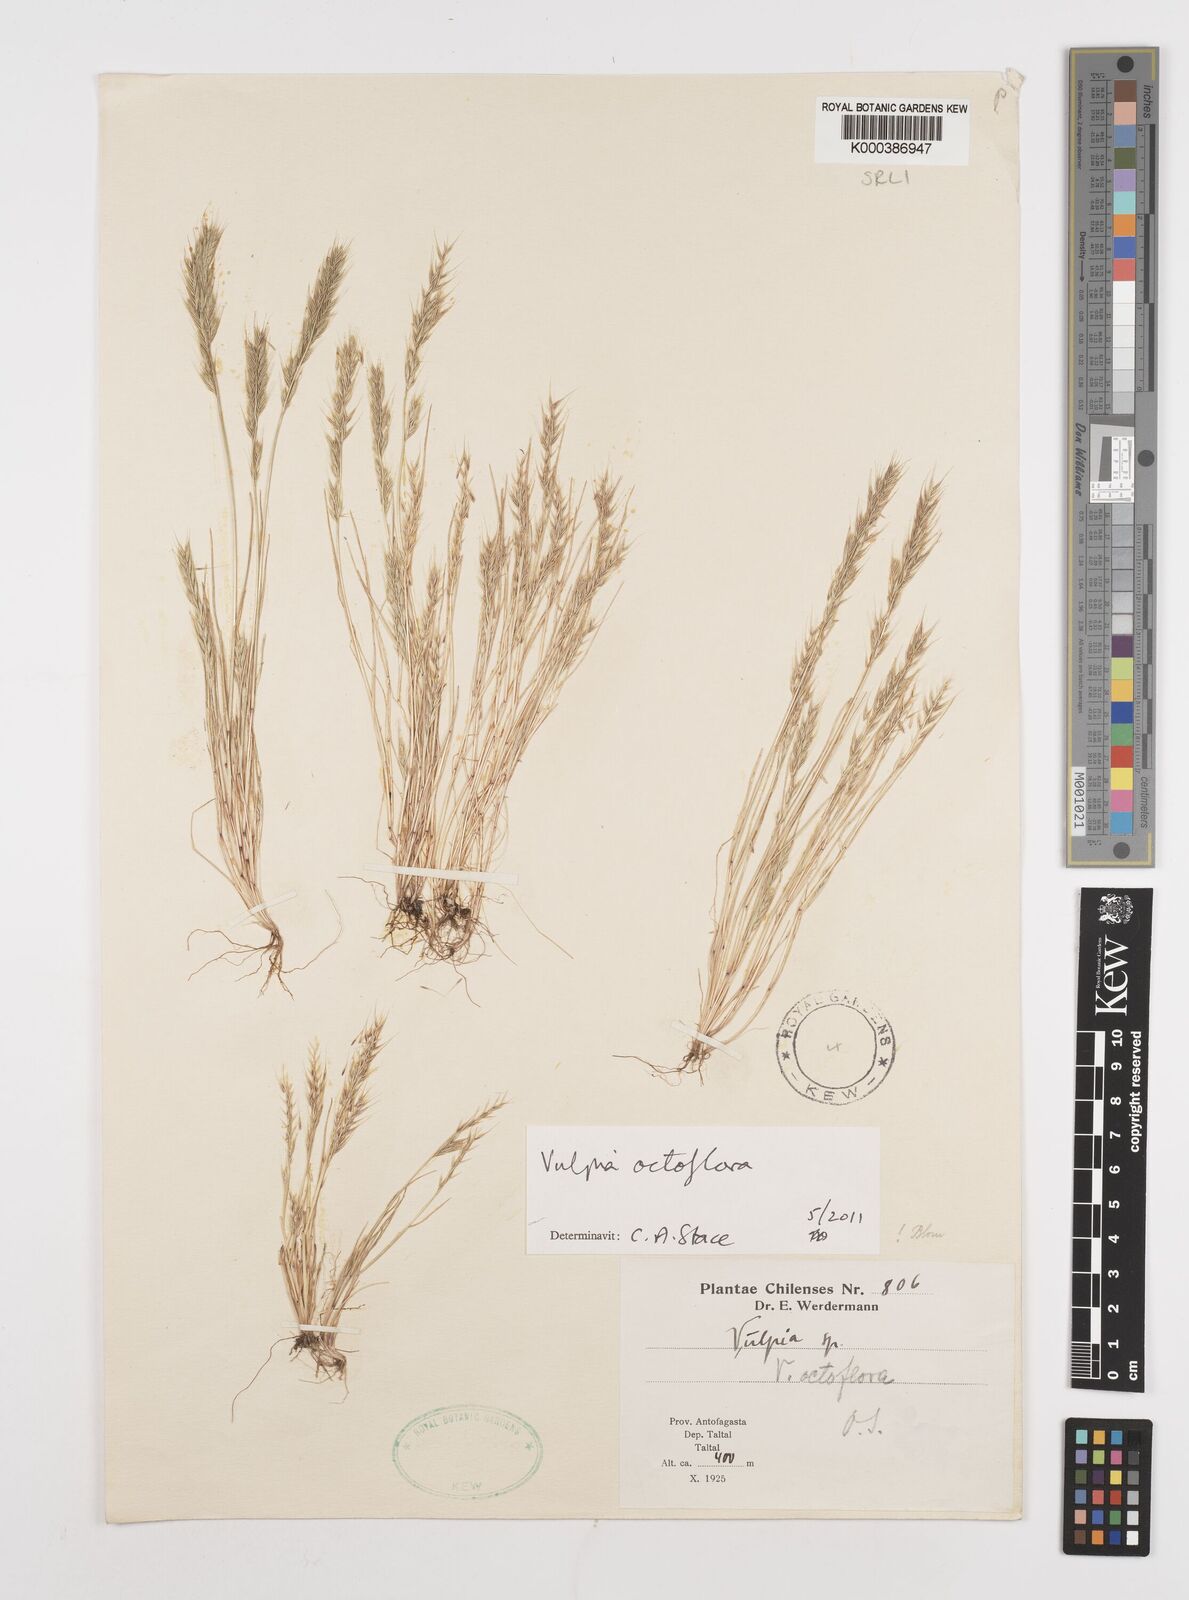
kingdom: Plantae
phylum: Tracheophyta
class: Liliopsida
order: Poales
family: Poaceae
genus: Festuca
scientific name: Festuca octoflora
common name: Sixweeks grass
